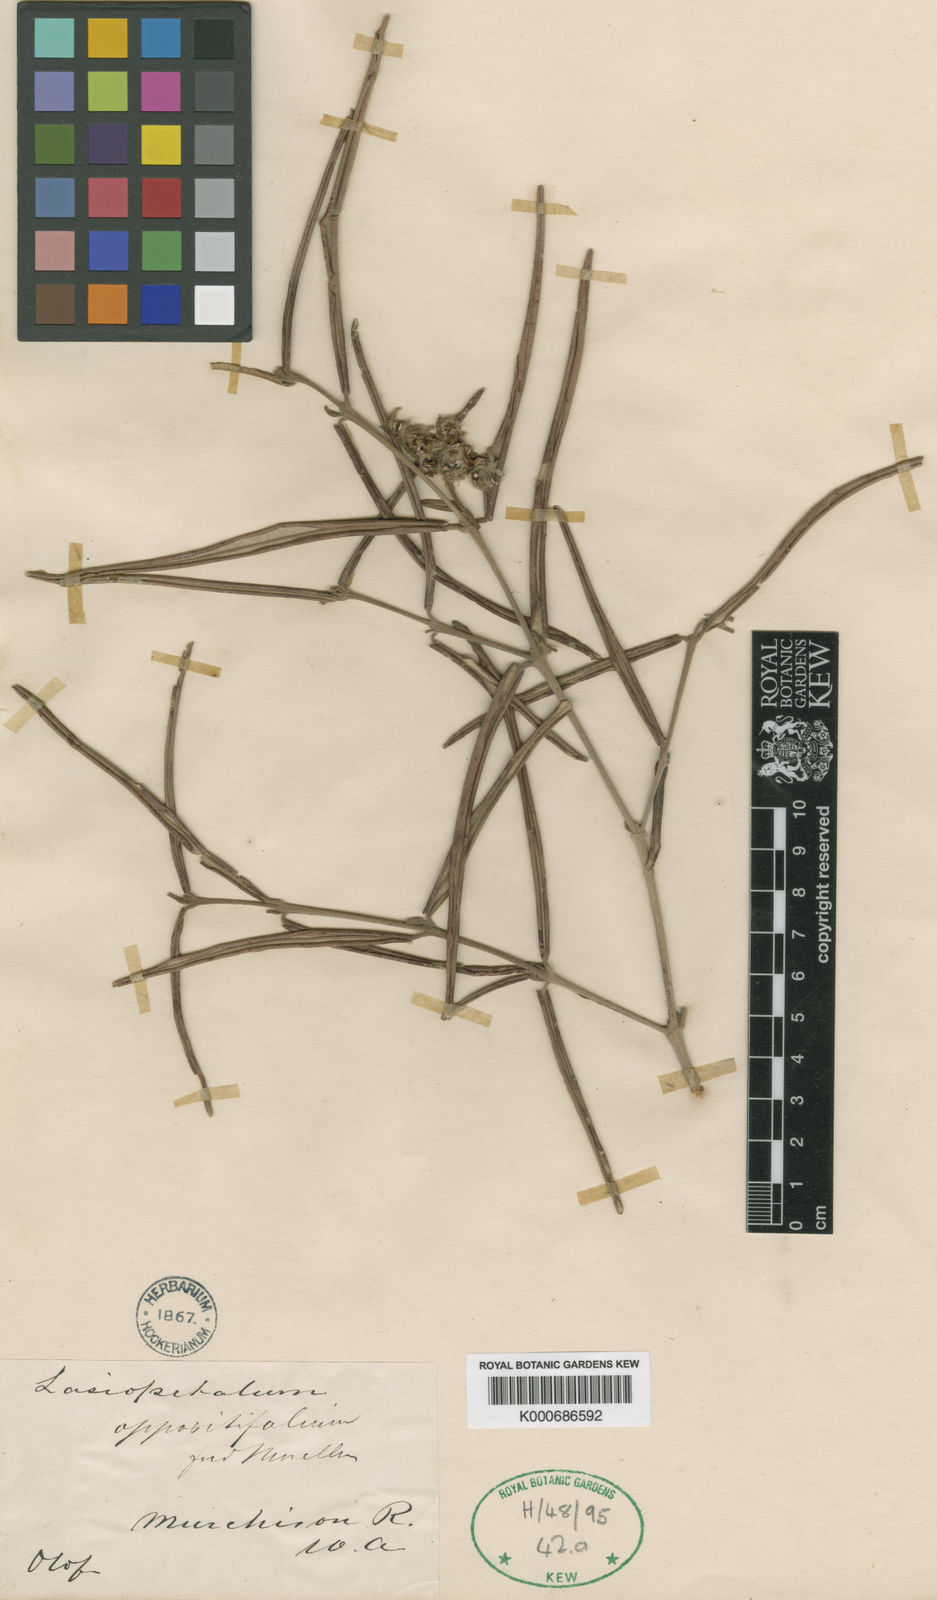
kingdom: Plantae
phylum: Tracheophyta
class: Magnoliopsida
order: Malvales
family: Malvaceae
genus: Lasiopetalum
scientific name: Lasiopetalum oppositifolium
